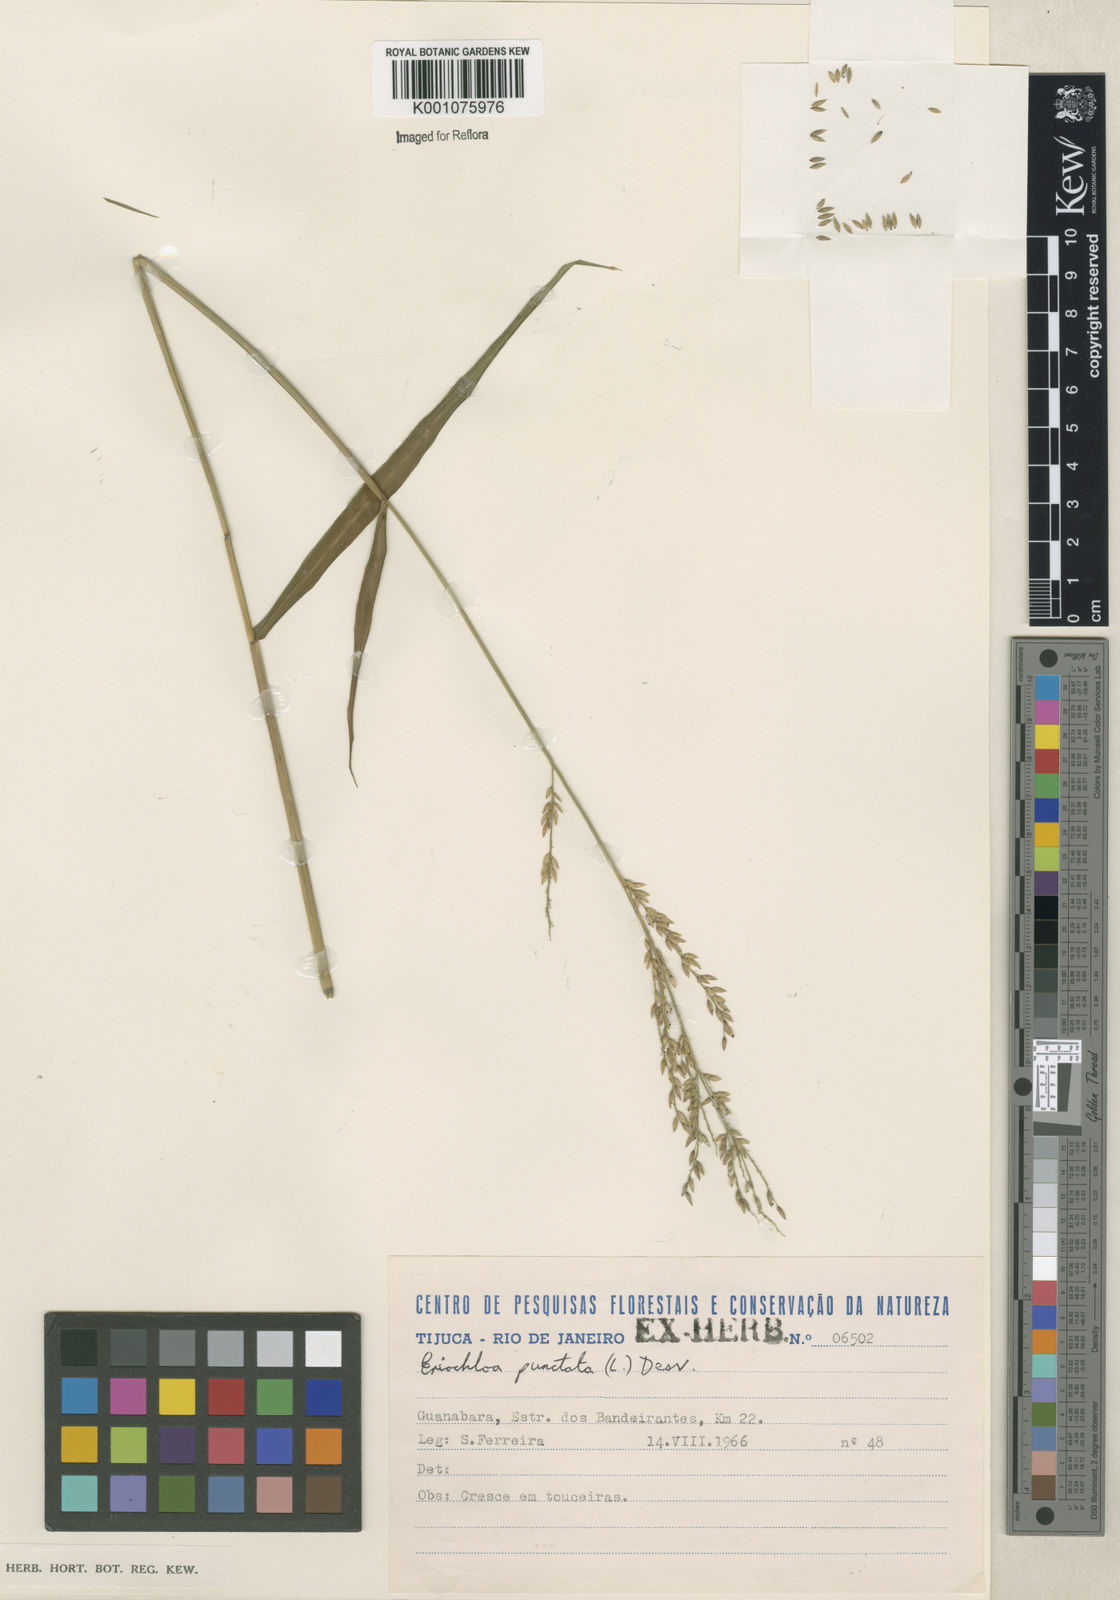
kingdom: Plantae
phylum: Tracheophyta
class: Liliopsida
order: Poales
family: Poaceae
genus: Eriochloa
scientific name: Eriochloa punctata
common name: Louisiana cupgrass
